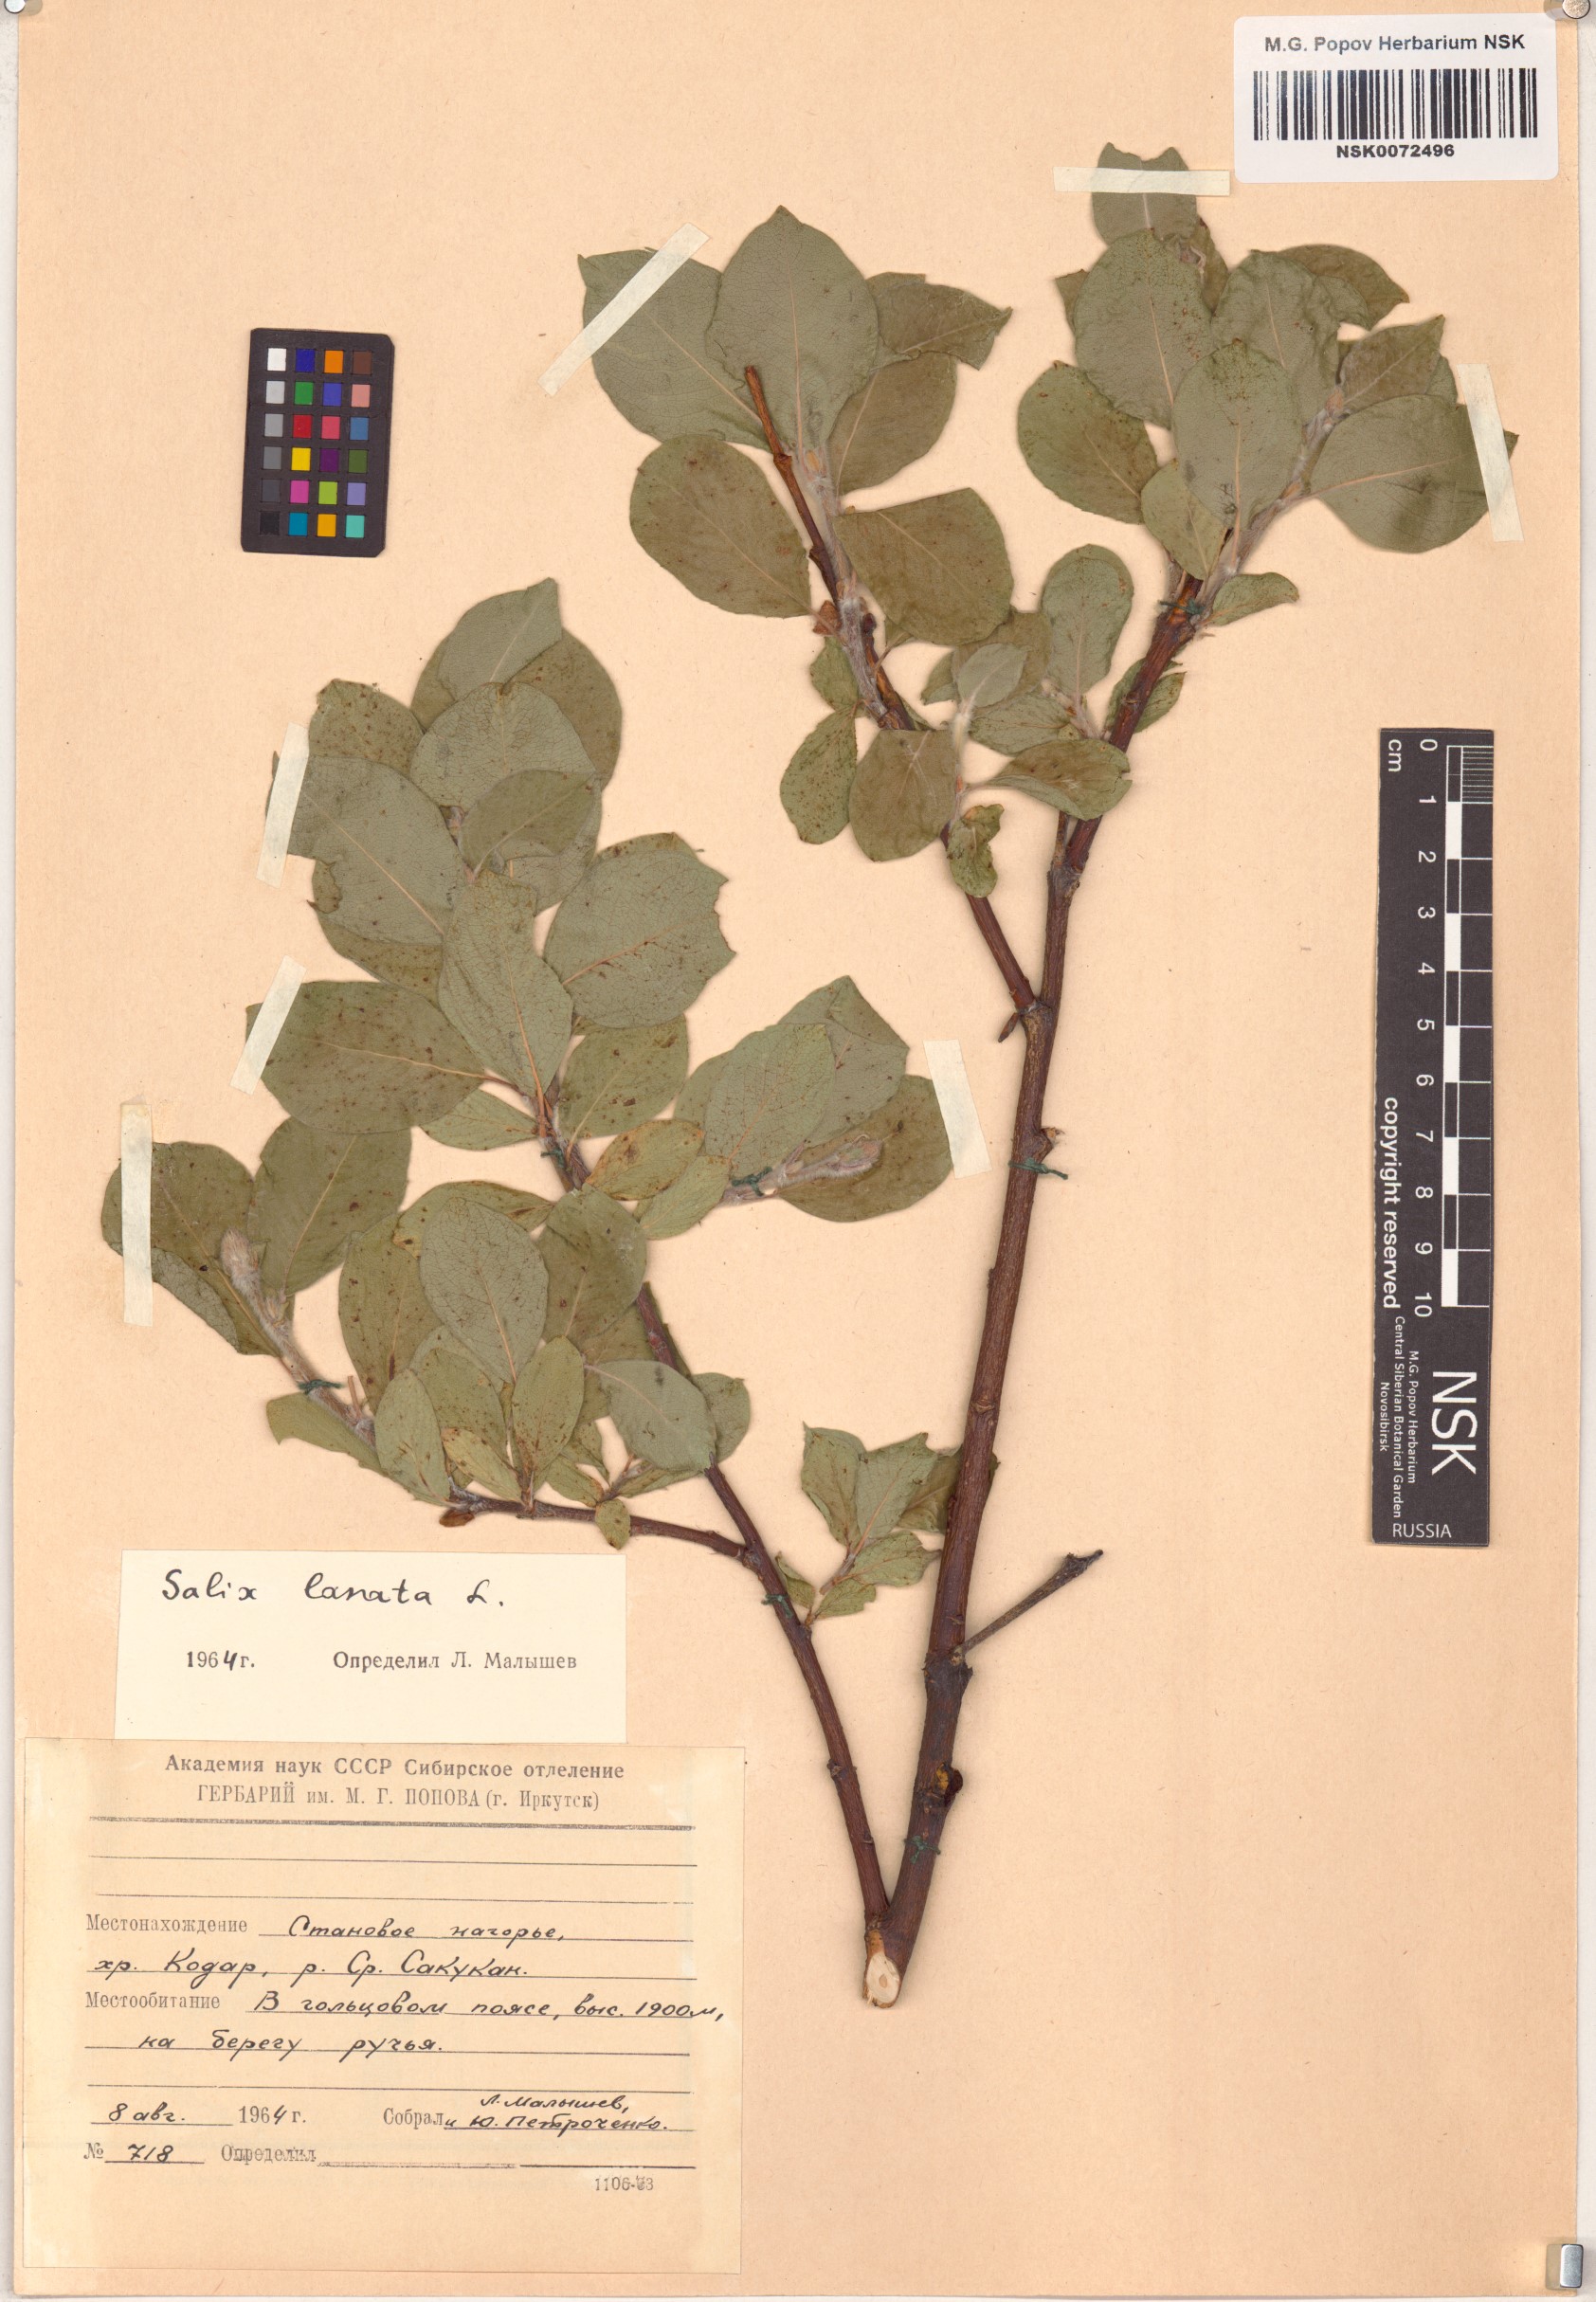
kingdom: Plantae
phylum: Tracheophyta
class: Magnoliopsida
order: Malpighiales
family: Salicaceae
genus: Salix
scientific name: Salix lanata
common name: Woolly willow
